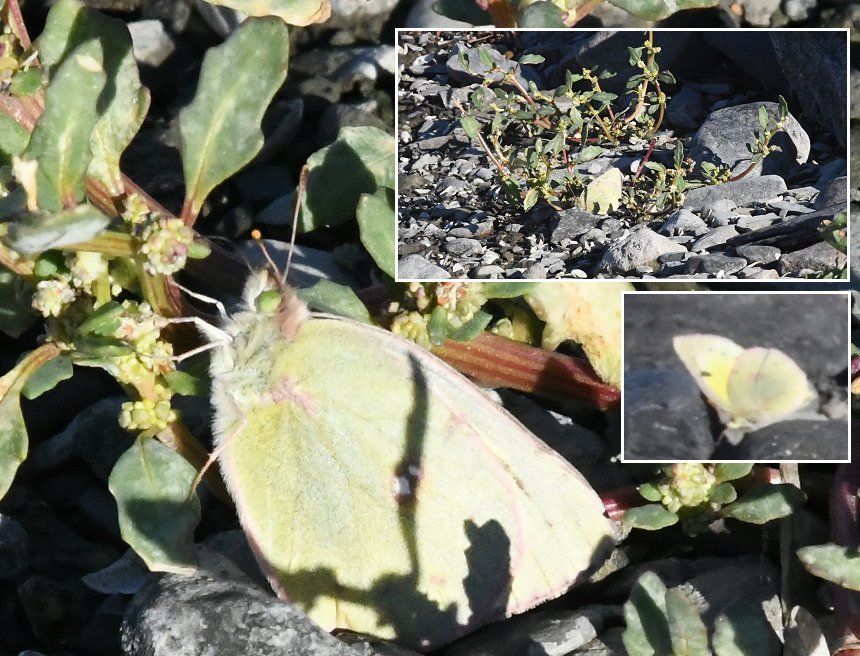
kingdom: Animalia
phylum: Arthropoda
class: Insecta
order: Lepidoptera
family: Pieridae
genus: Colias
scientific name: Colias philodice
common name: Clouded Sulphur
